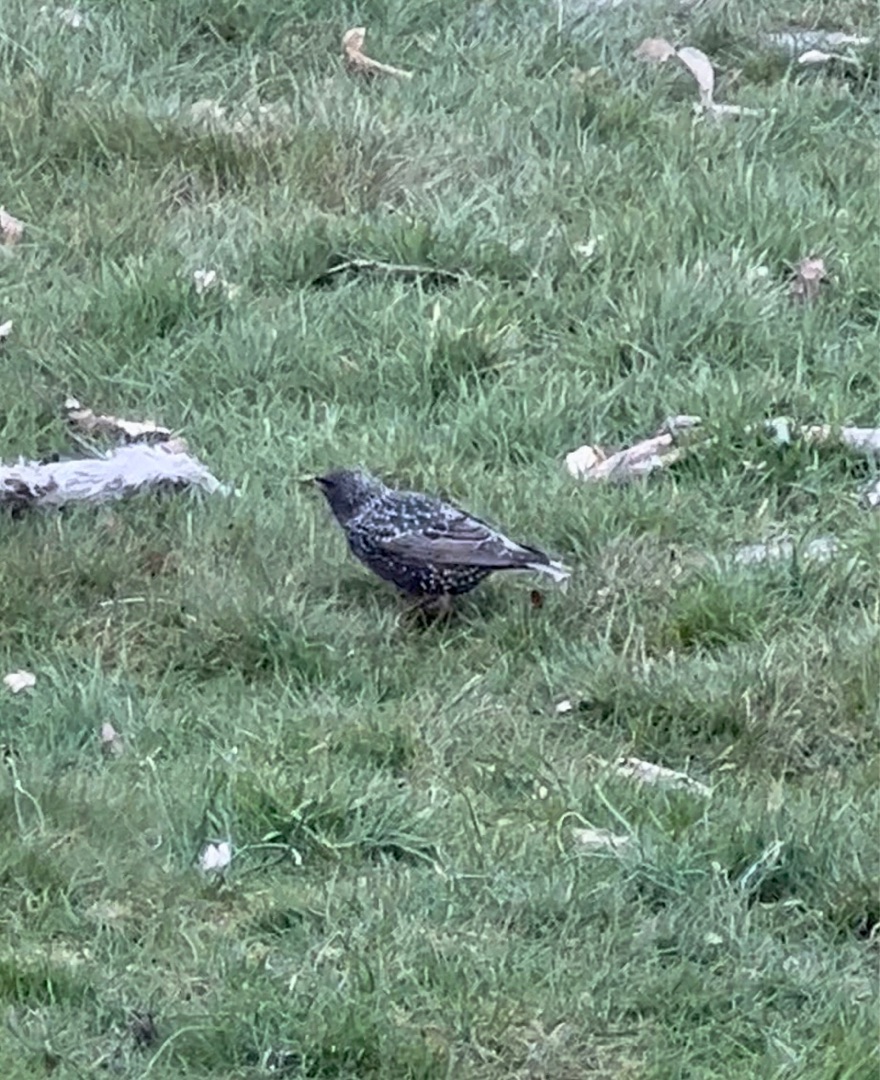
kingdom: Animalia
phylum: Chordata
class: Aves
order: Passeriformes
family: Sturnidae
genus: Sturnus
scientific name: Sturnus vulgaris
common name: Stær
